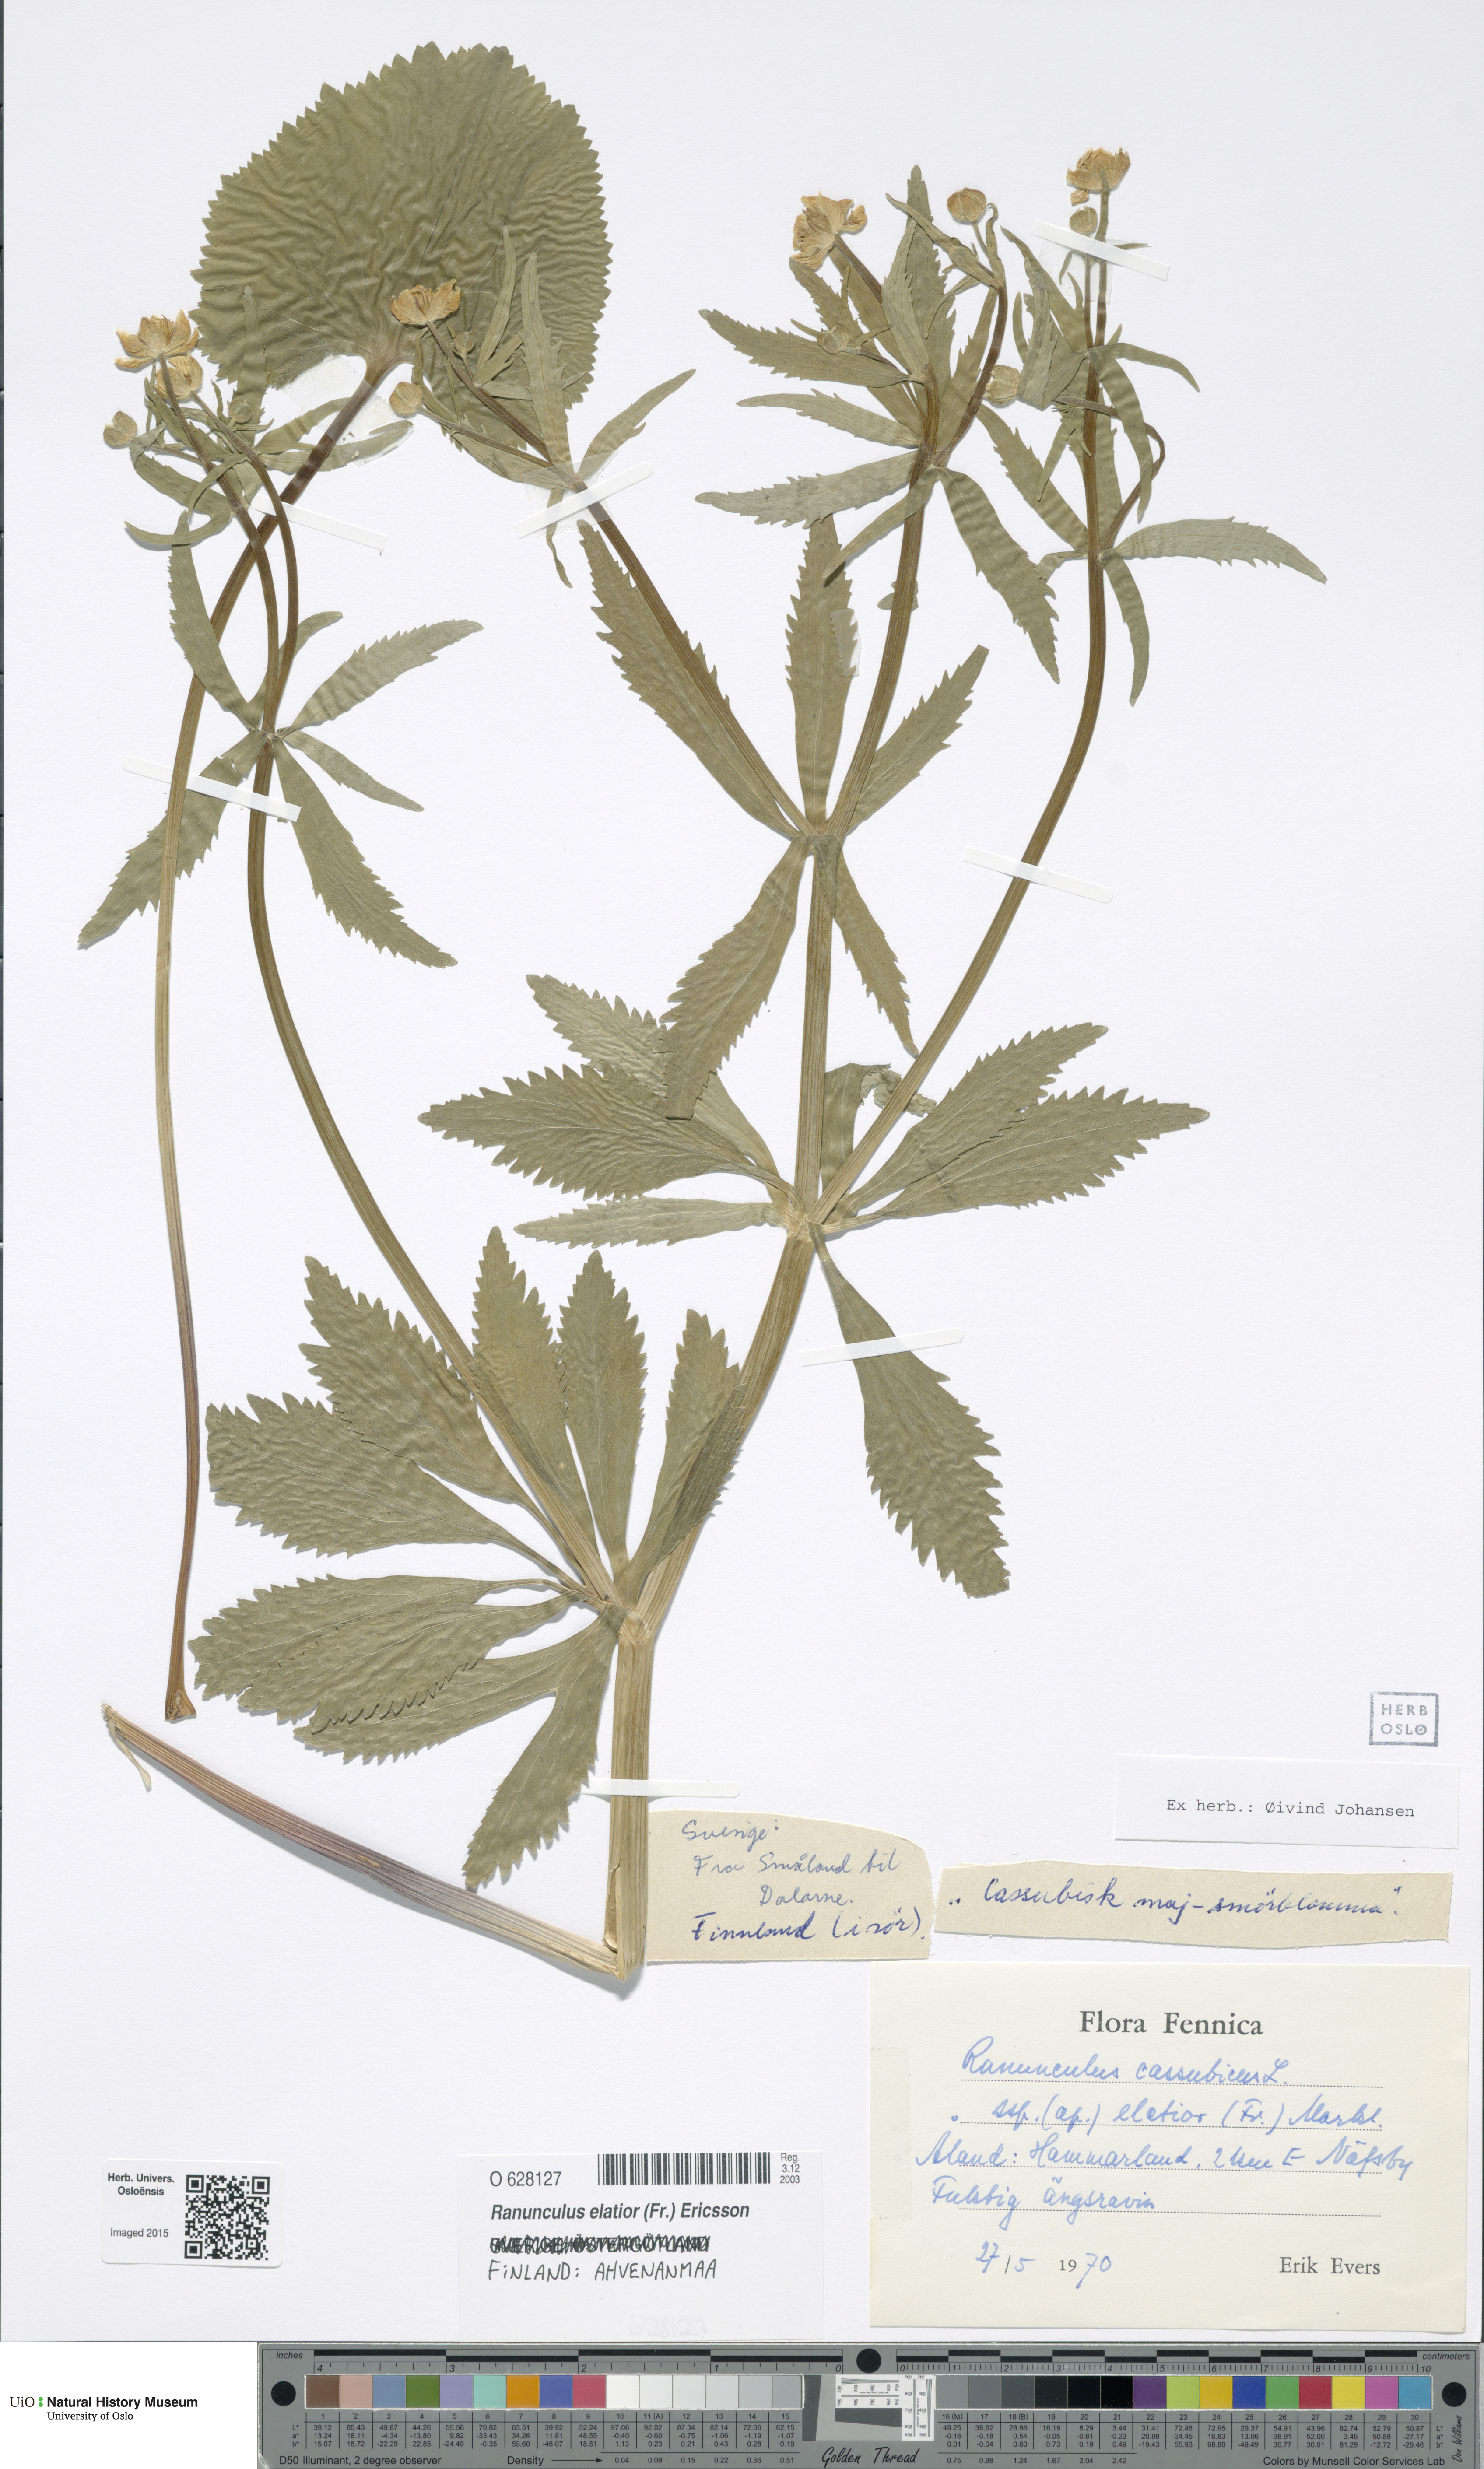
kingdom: Plantae
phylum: Tracheophyta
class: Magnoliopsida
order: Ranunculales
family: Ranunculaceae
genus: Ranunculus
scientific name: Ranunculus elatior
